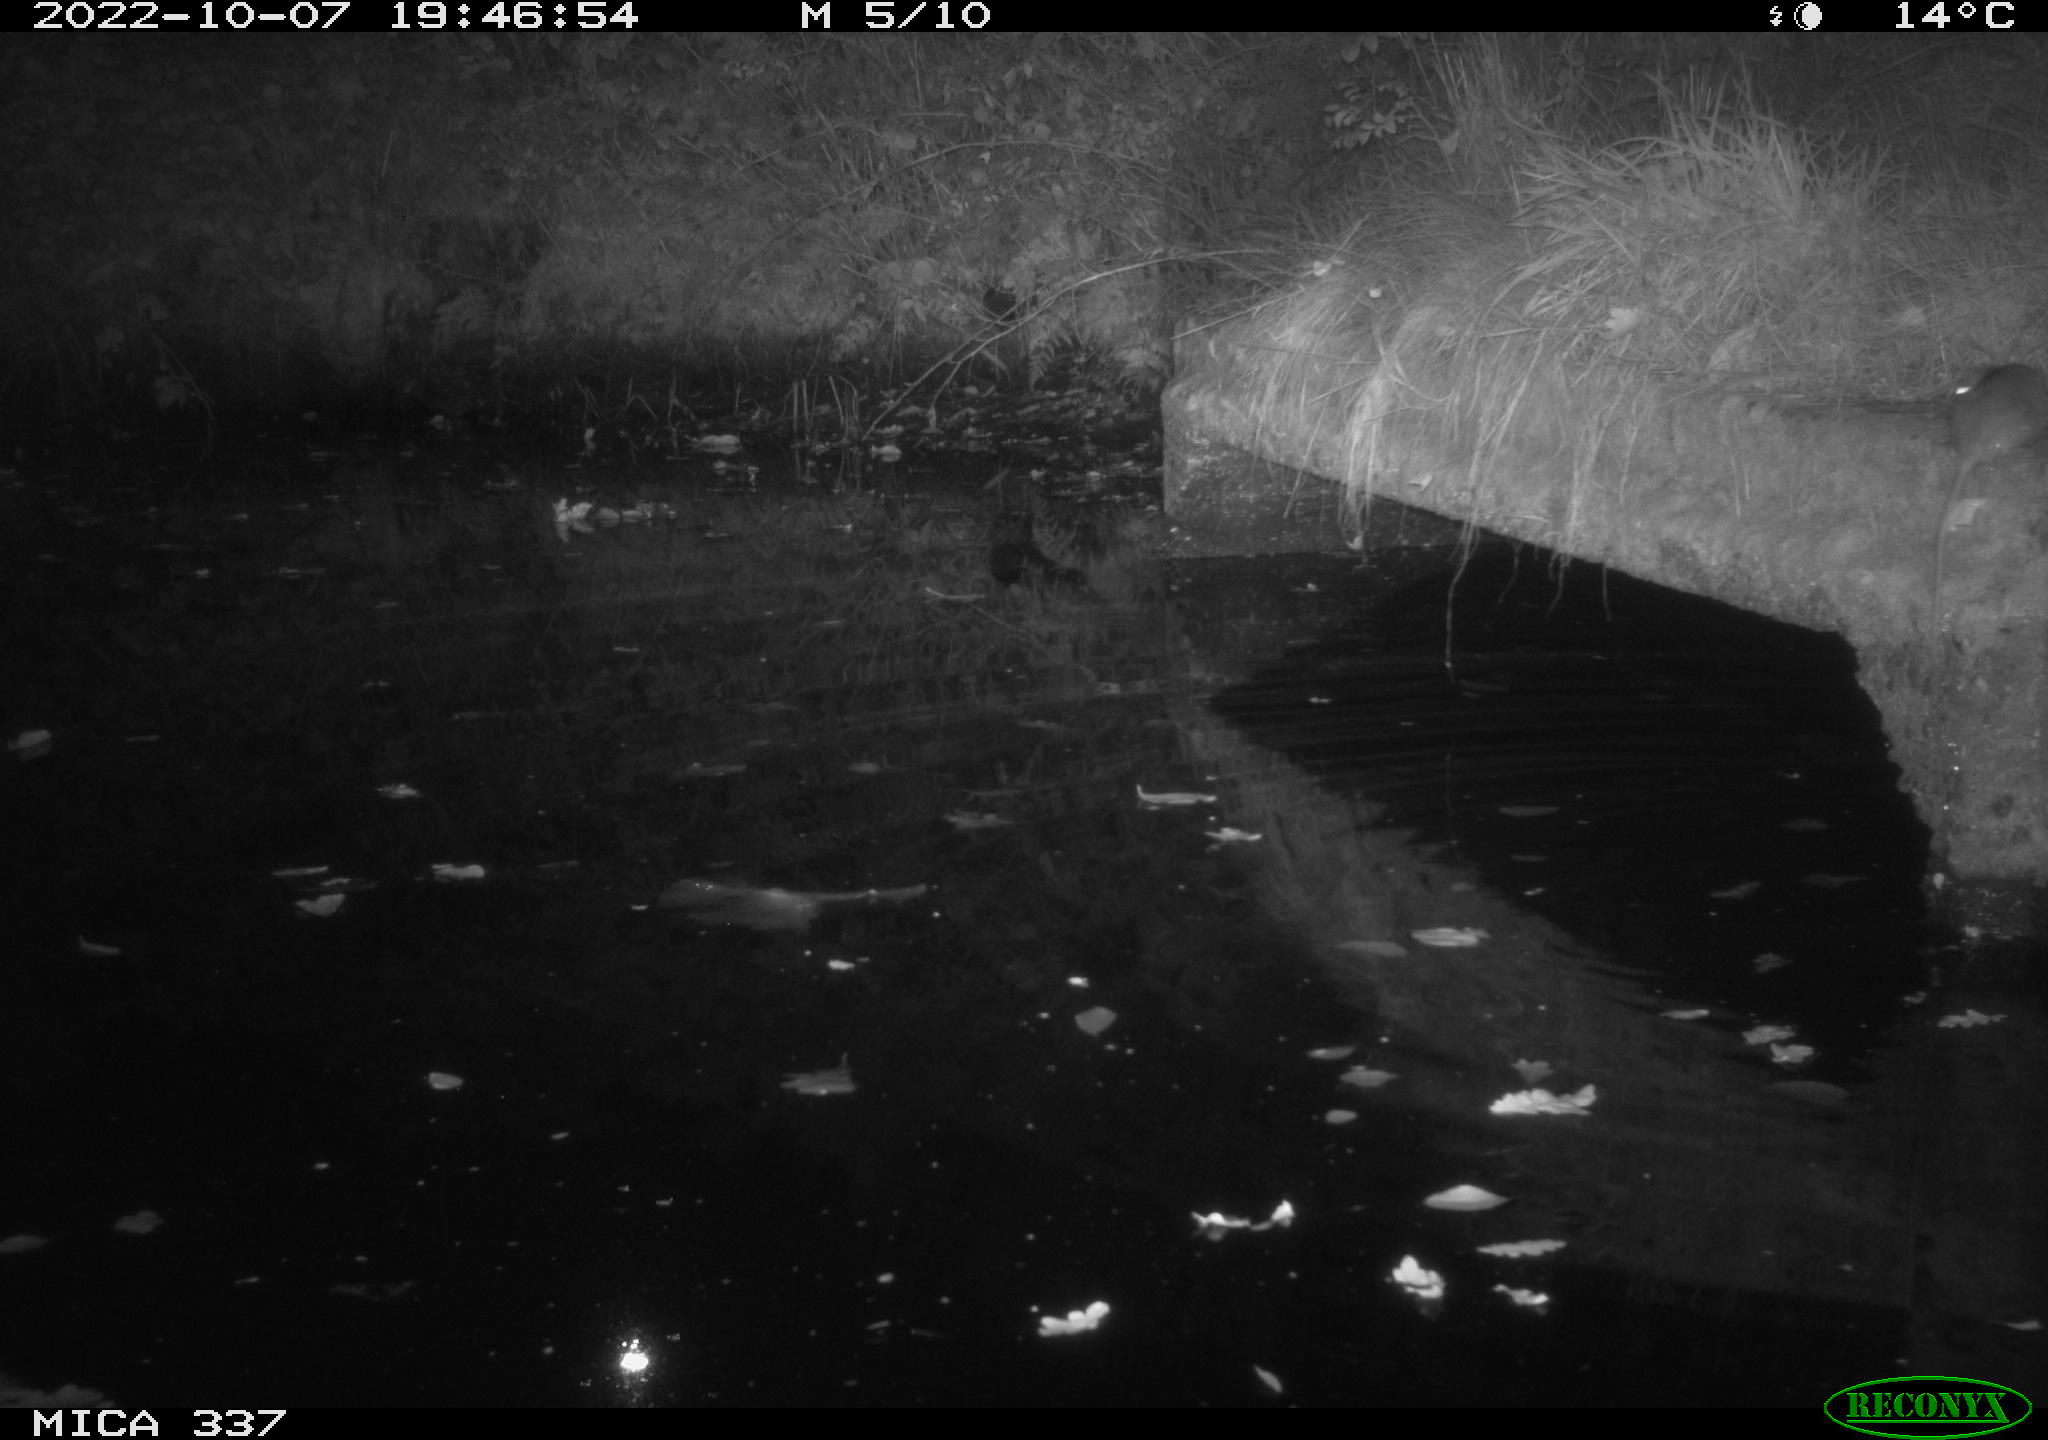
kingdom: Animalia
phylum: Chordata
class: Mammalia
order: Rodentia
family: Muridae
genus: Rattus
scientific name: Rattus norvegicus
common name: Brown rat
